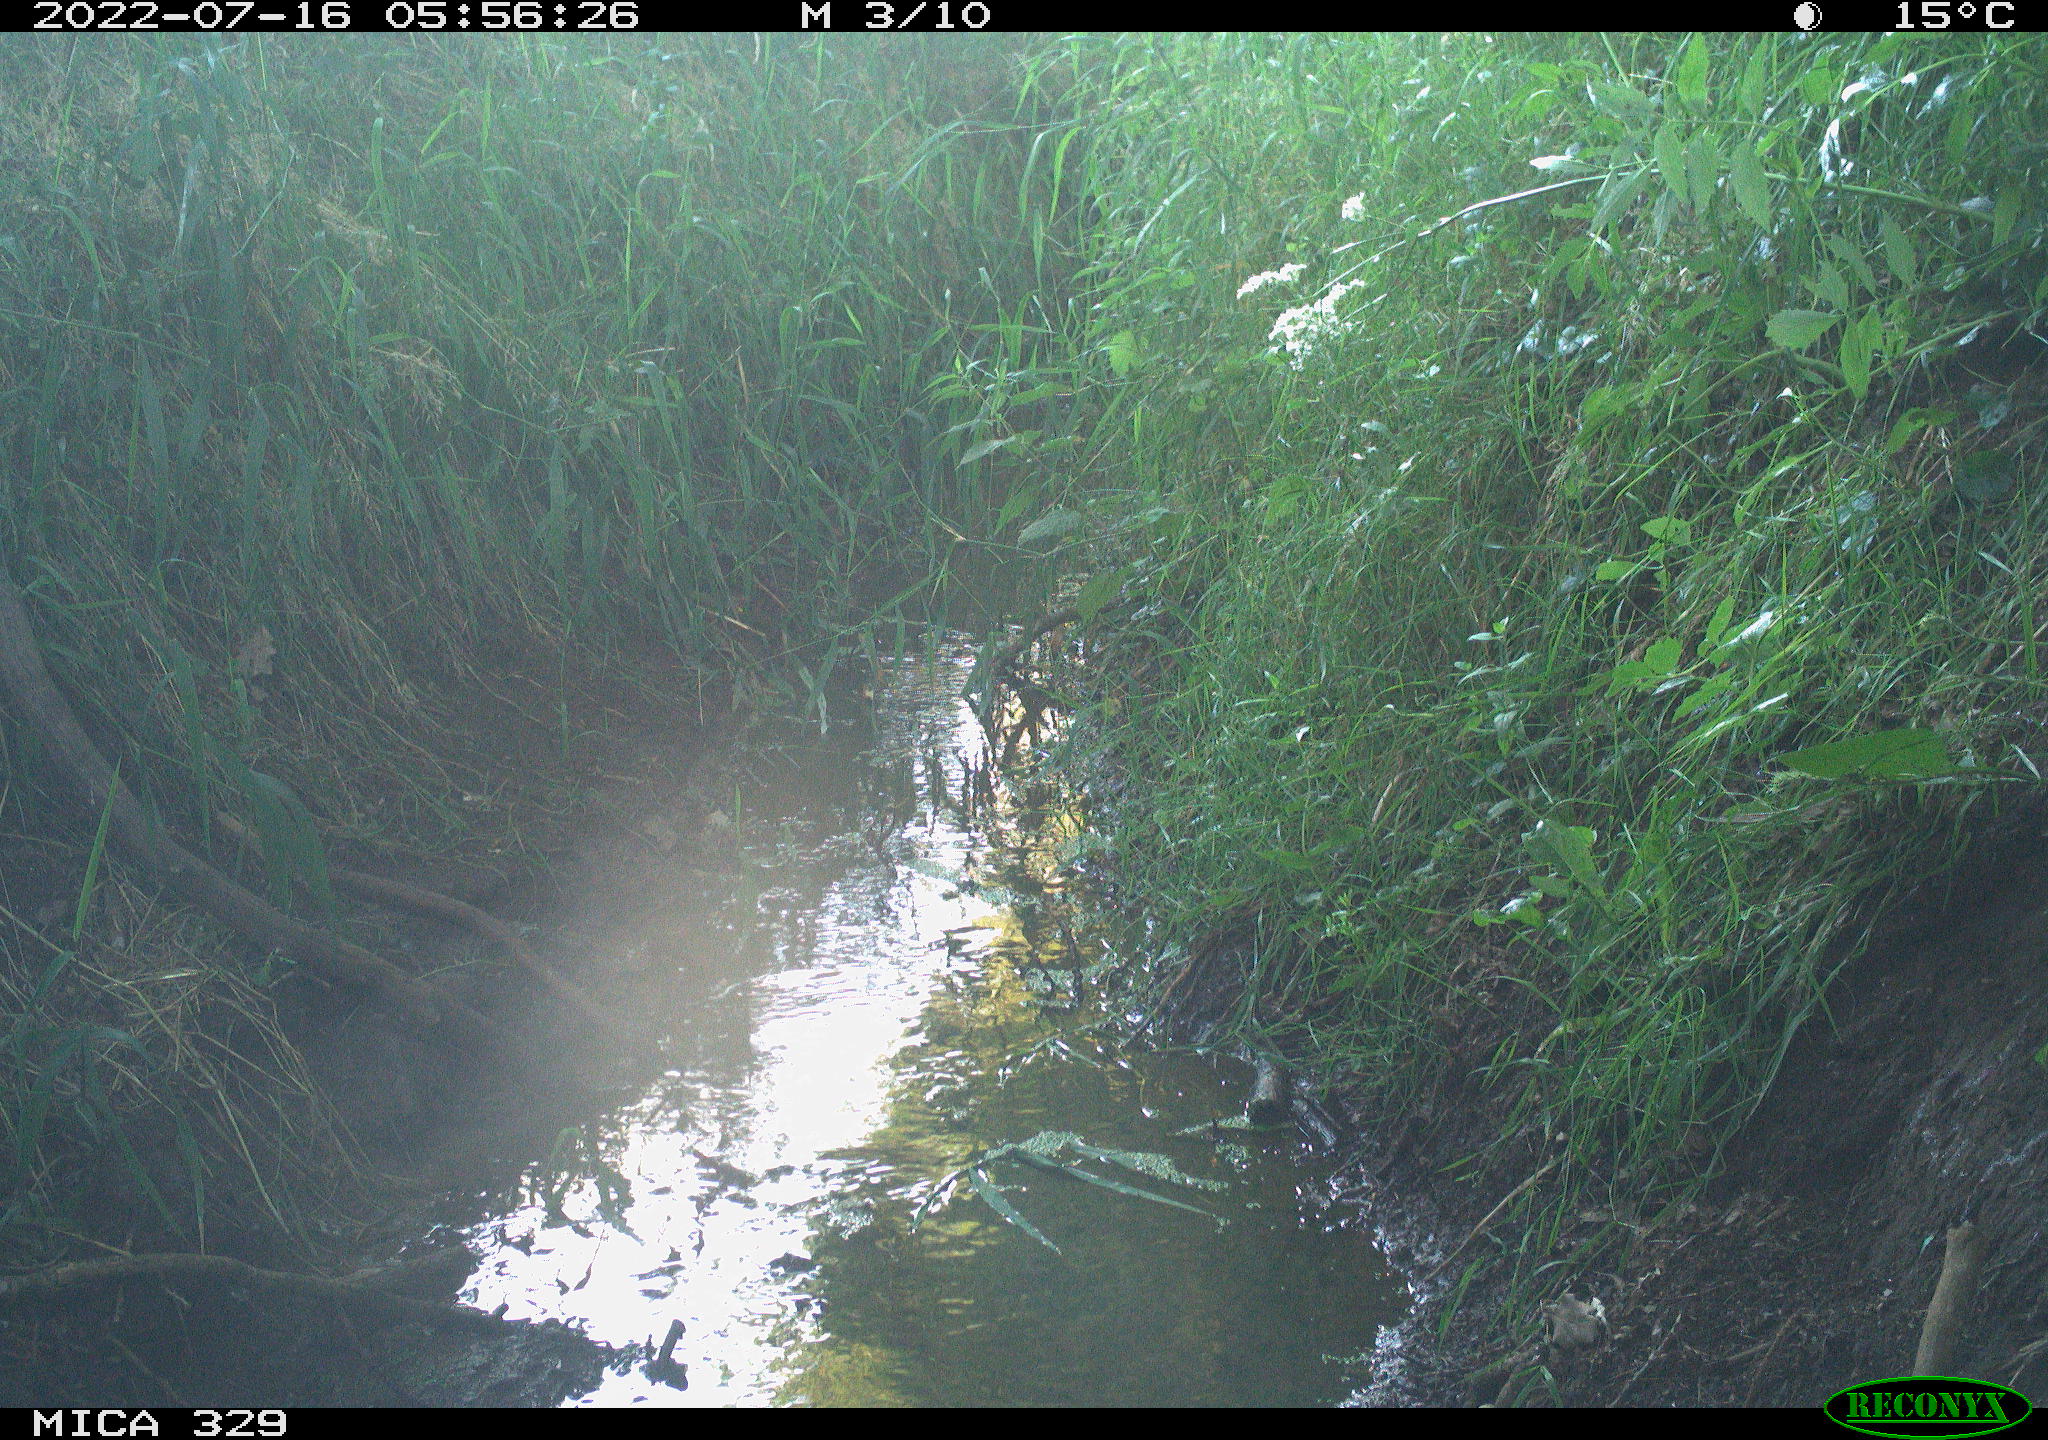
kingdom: Animalia
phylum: Chordata
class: Mammalia
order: Rodentia
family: Sciuridae
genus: Sciurus
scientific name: Sciurus vulgaris
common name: Eurasian red squirrel
